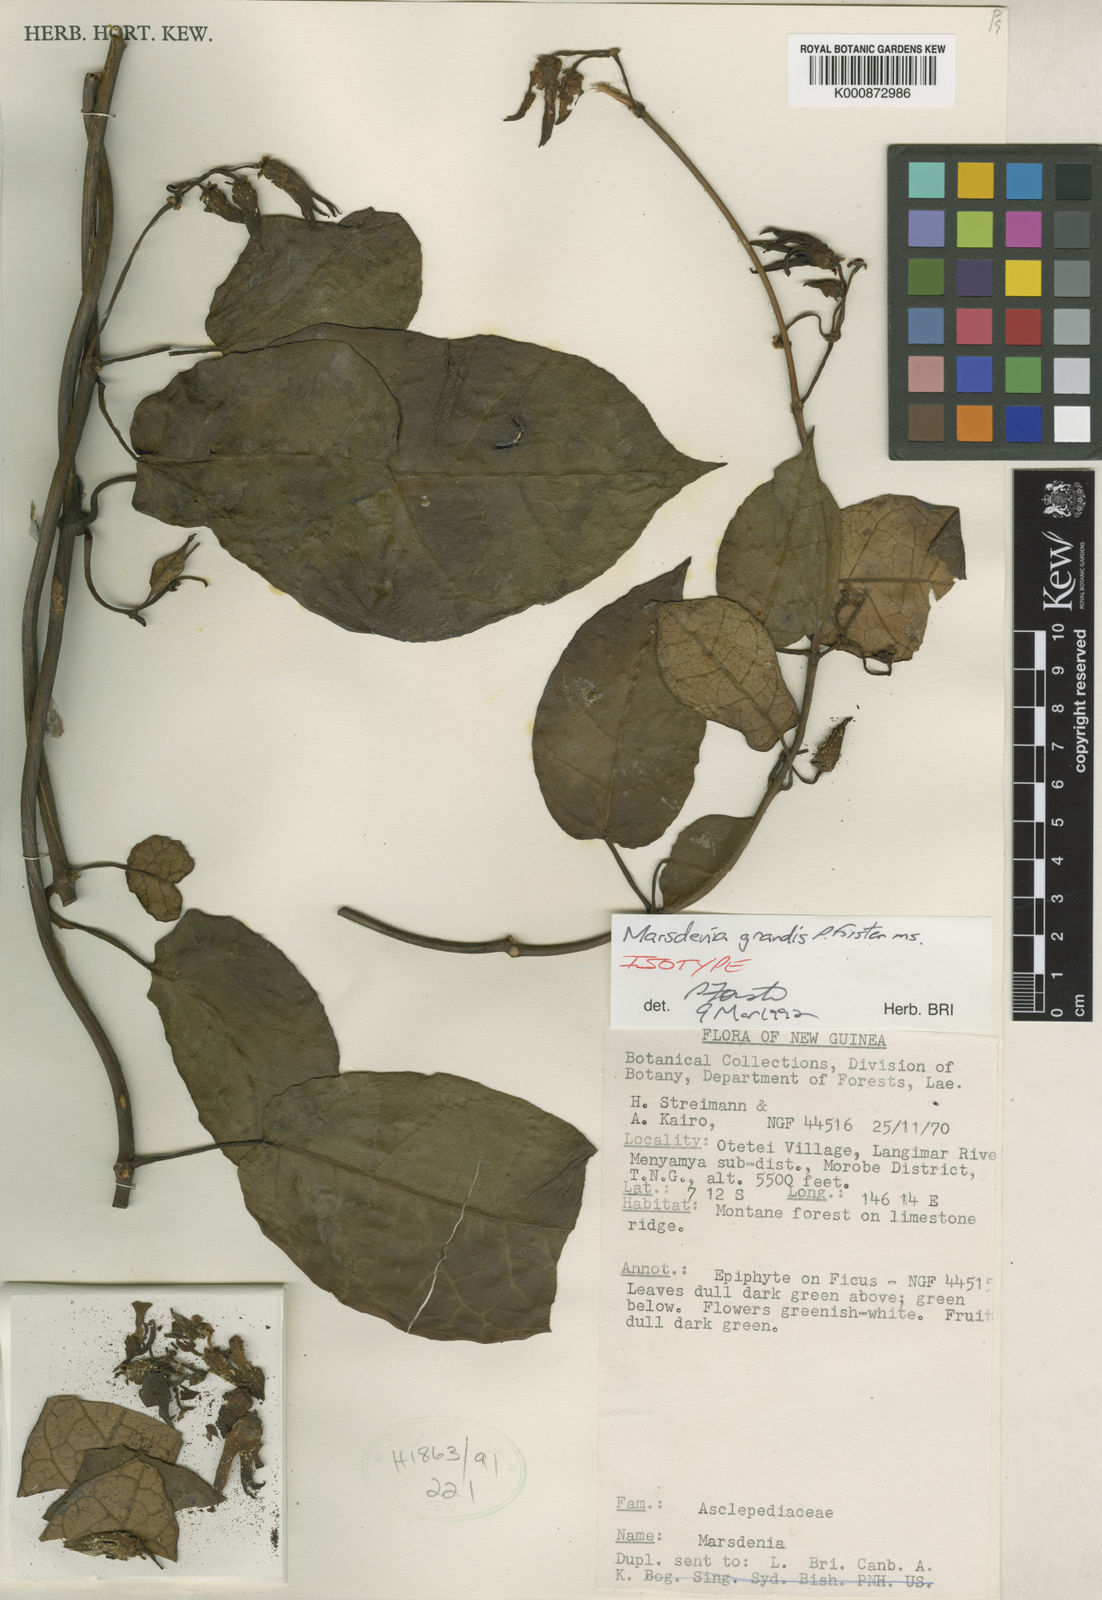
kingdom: Plantae
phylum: Tracheophyta
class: Magnoliopsida
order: Gentianales
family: Apocynaceae
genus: Leichhardtia
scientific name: Leichhardtia grandis
